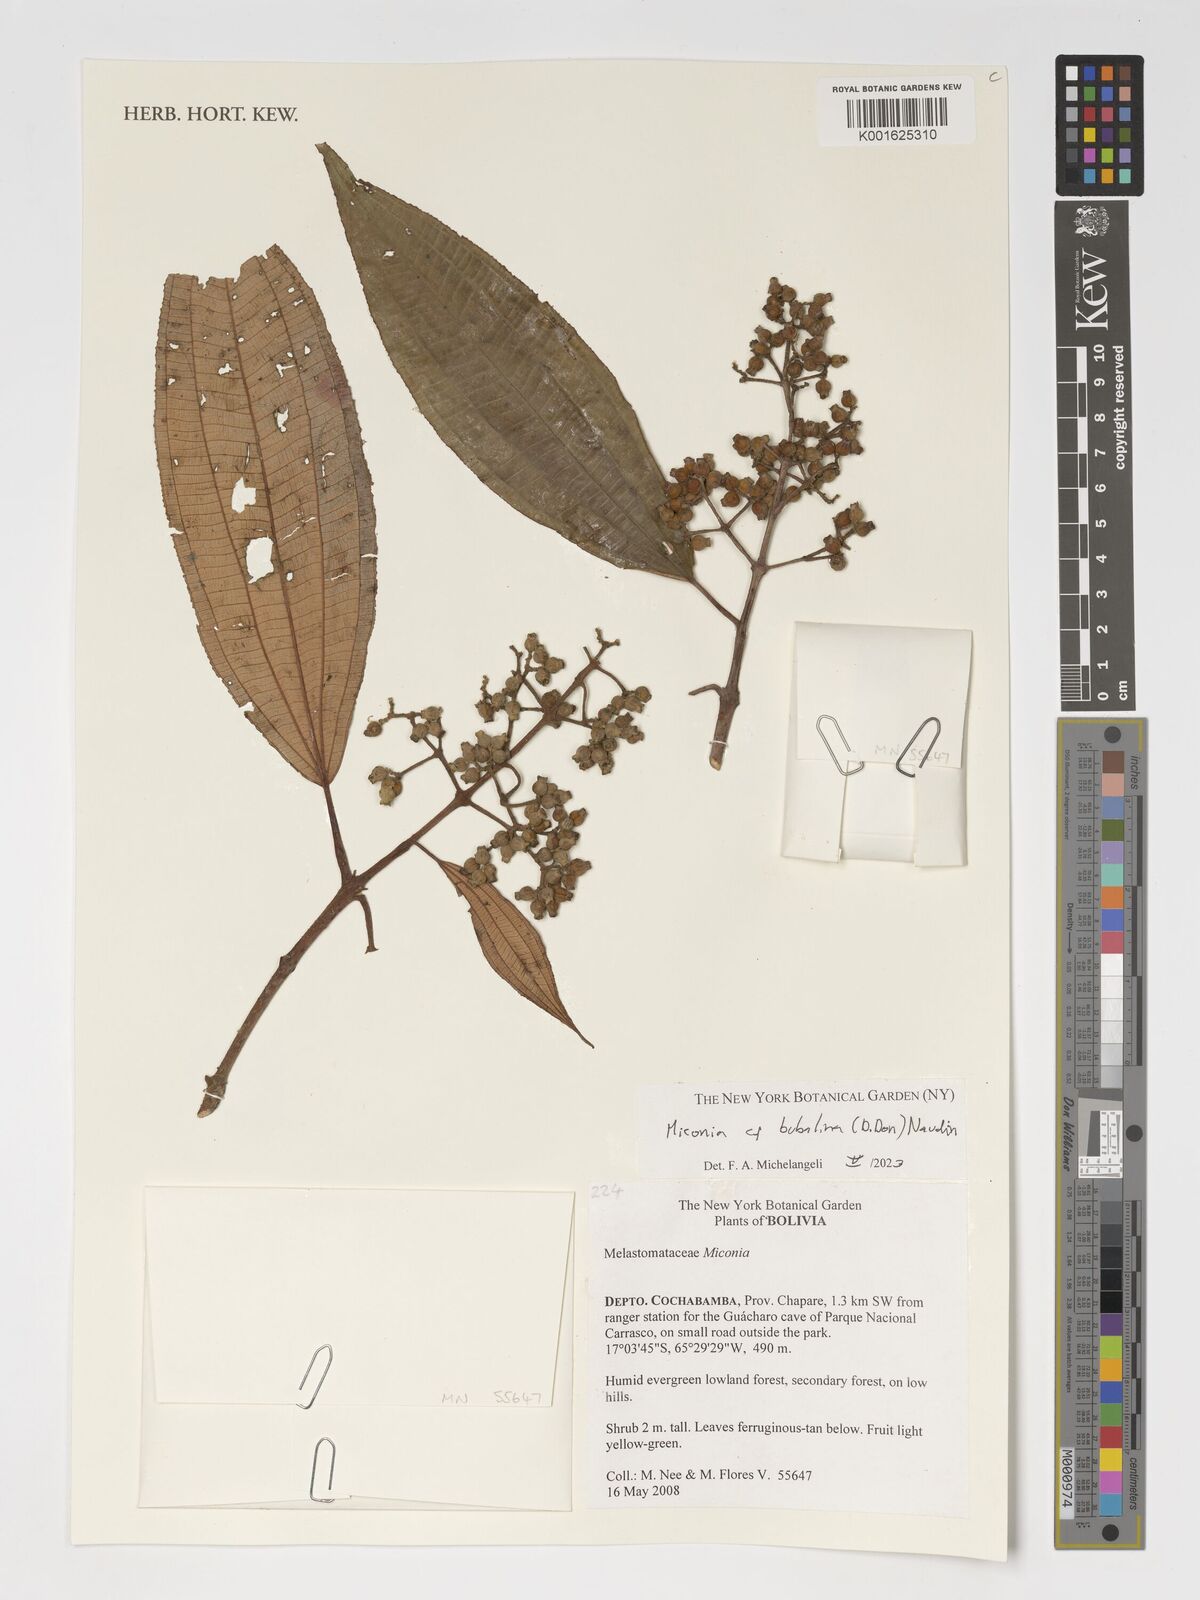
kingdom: Plantae
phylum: Tracheophyta
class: Magnoliopsida
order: Myrtales
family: Melastomataceae
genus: Miconia
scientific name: Miconia bubalina
